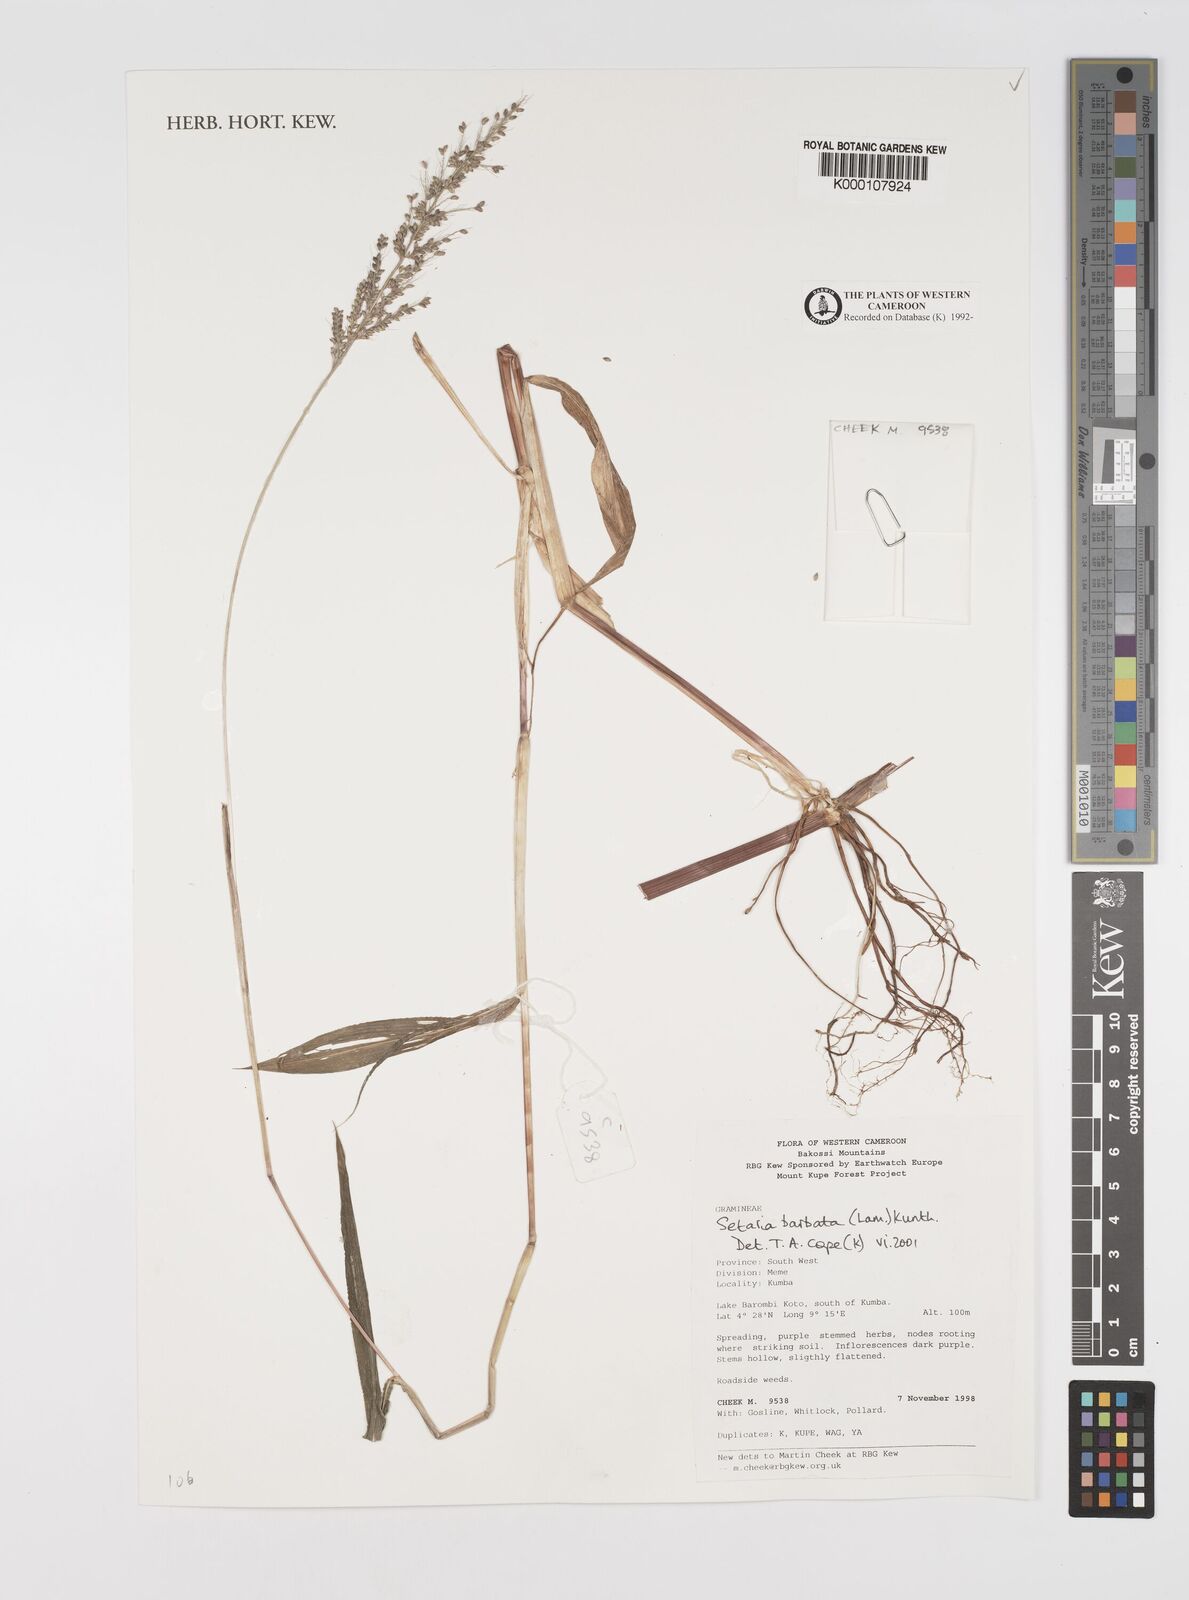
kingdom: Plantae
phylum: Tracheophyta
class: Liliopsida
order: Poales
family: Poaceae
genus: Setaria
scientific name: Setaria barbata
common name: East indian bristlegrass
